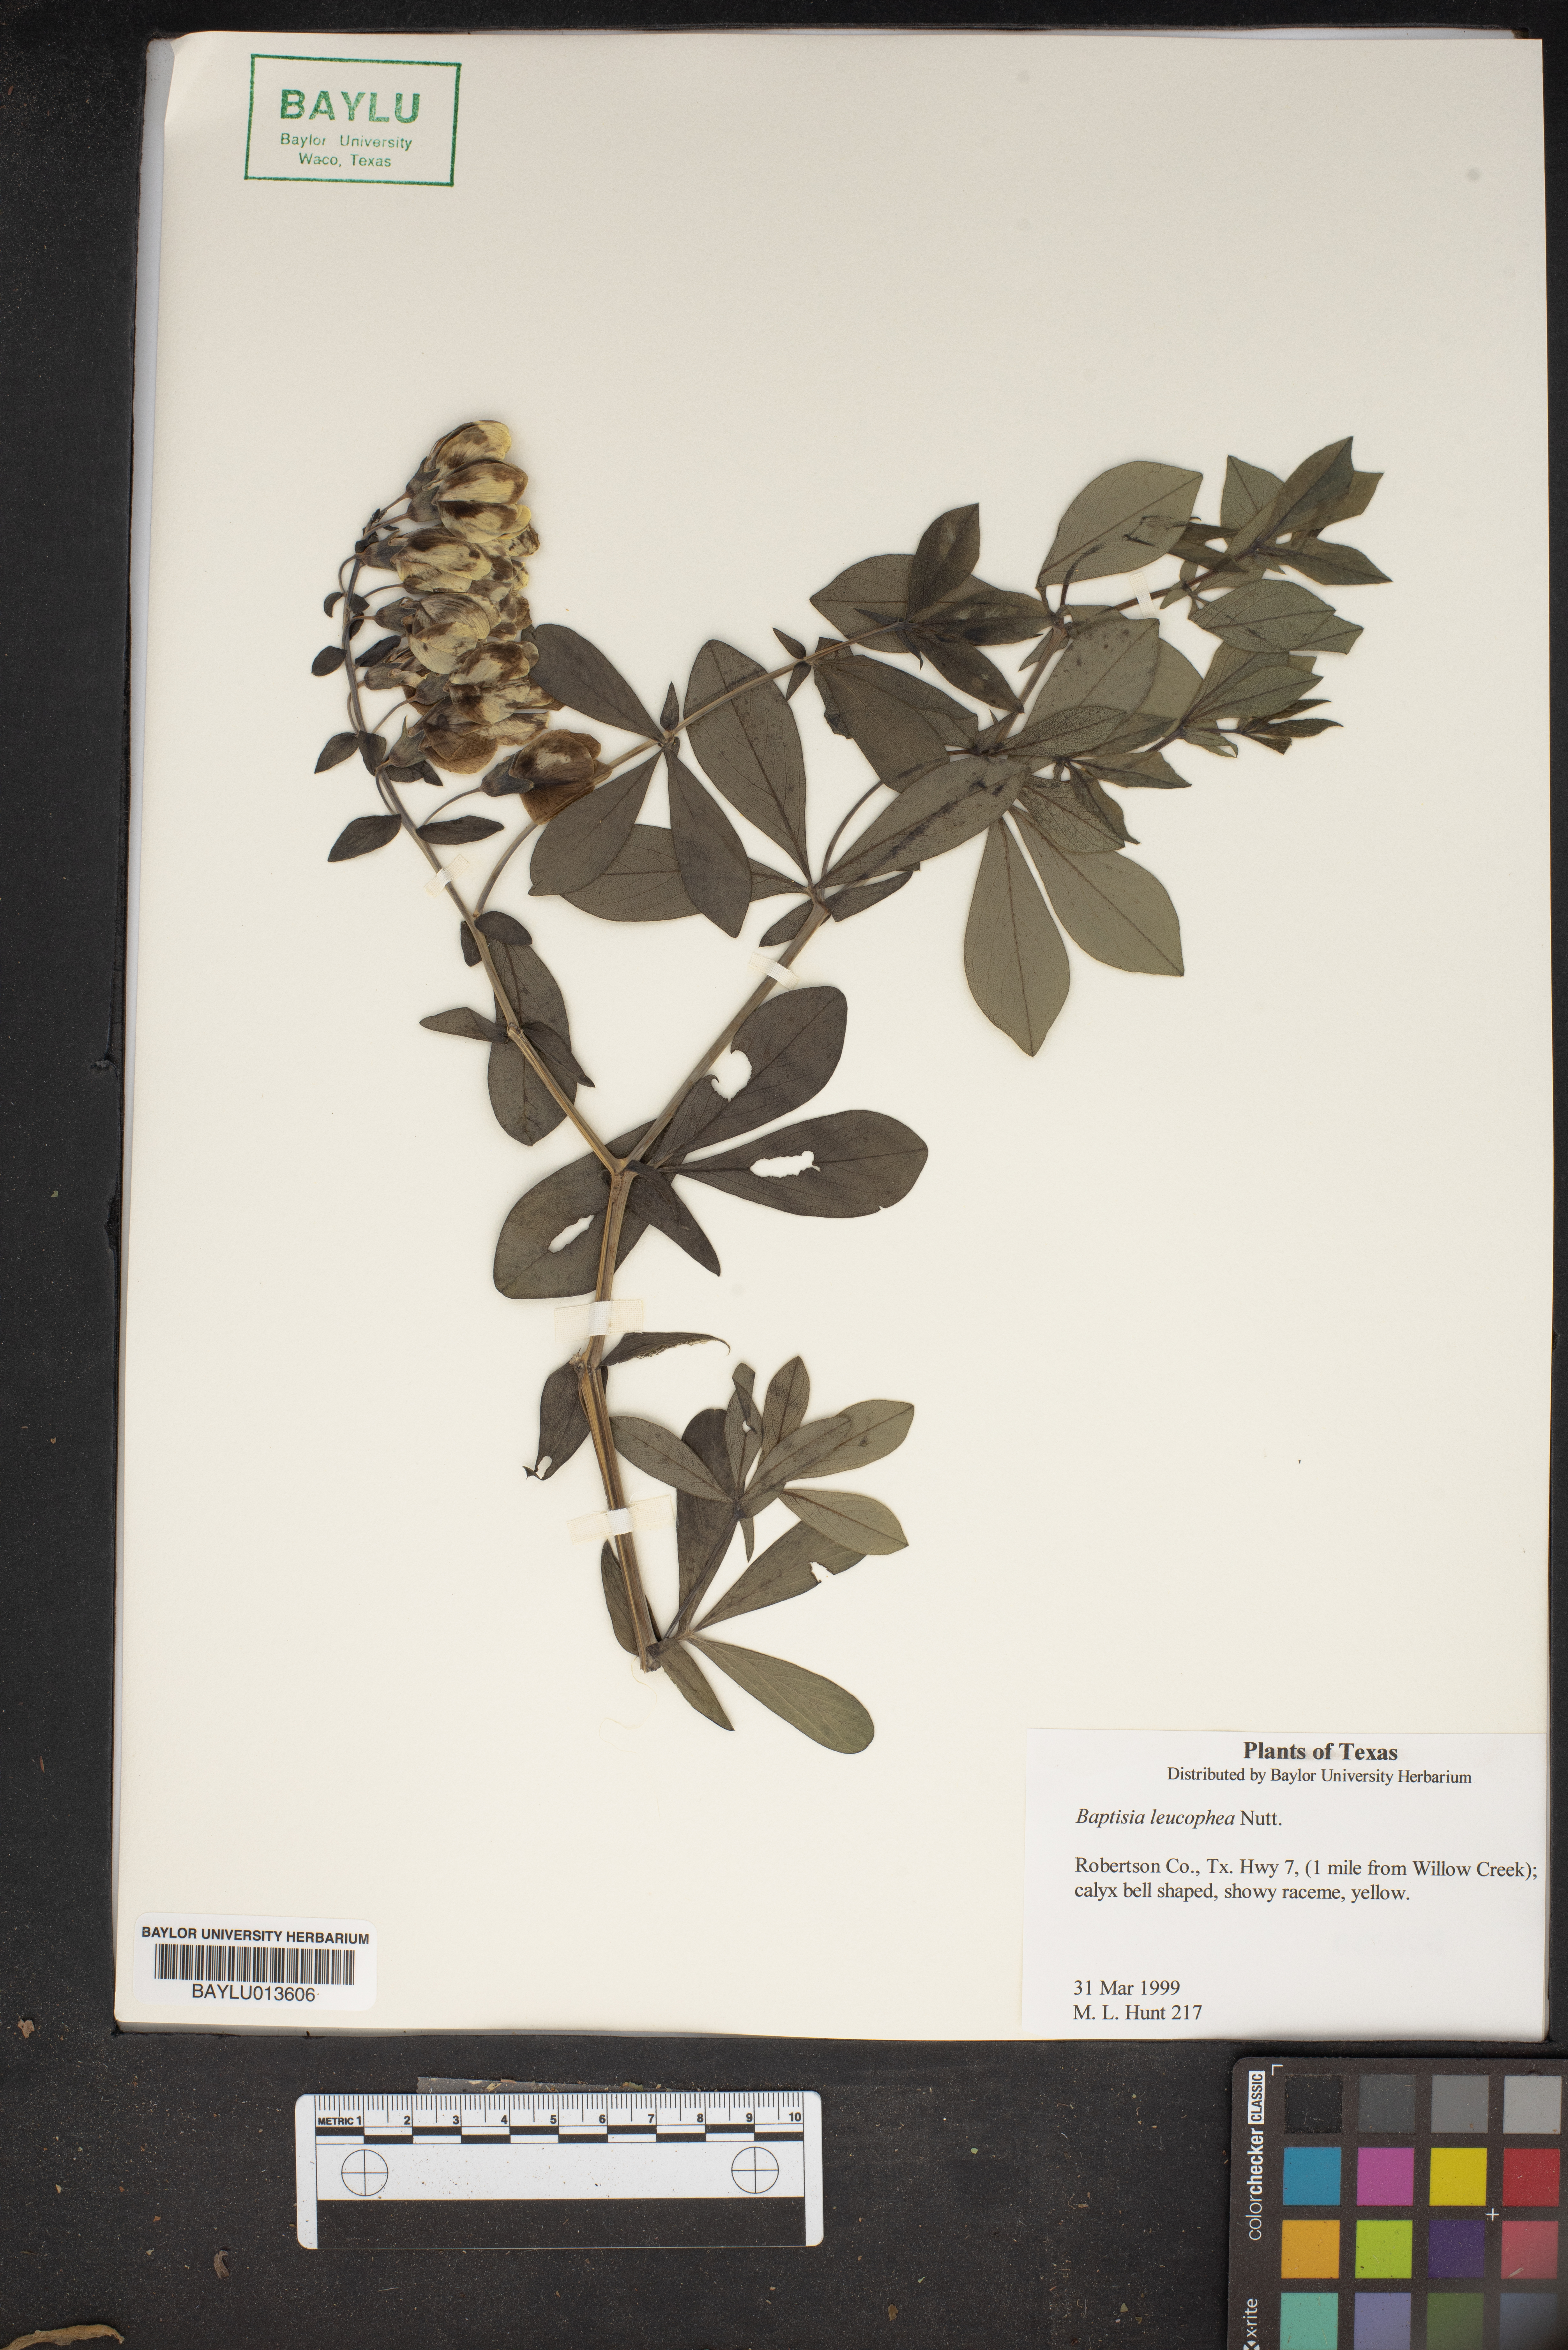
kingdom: Plantae
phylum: Tracheophyta
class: Magnoliopsida
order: Fabales
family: Fabaceae
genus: Baptisia
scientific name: Baptisia bracteata
